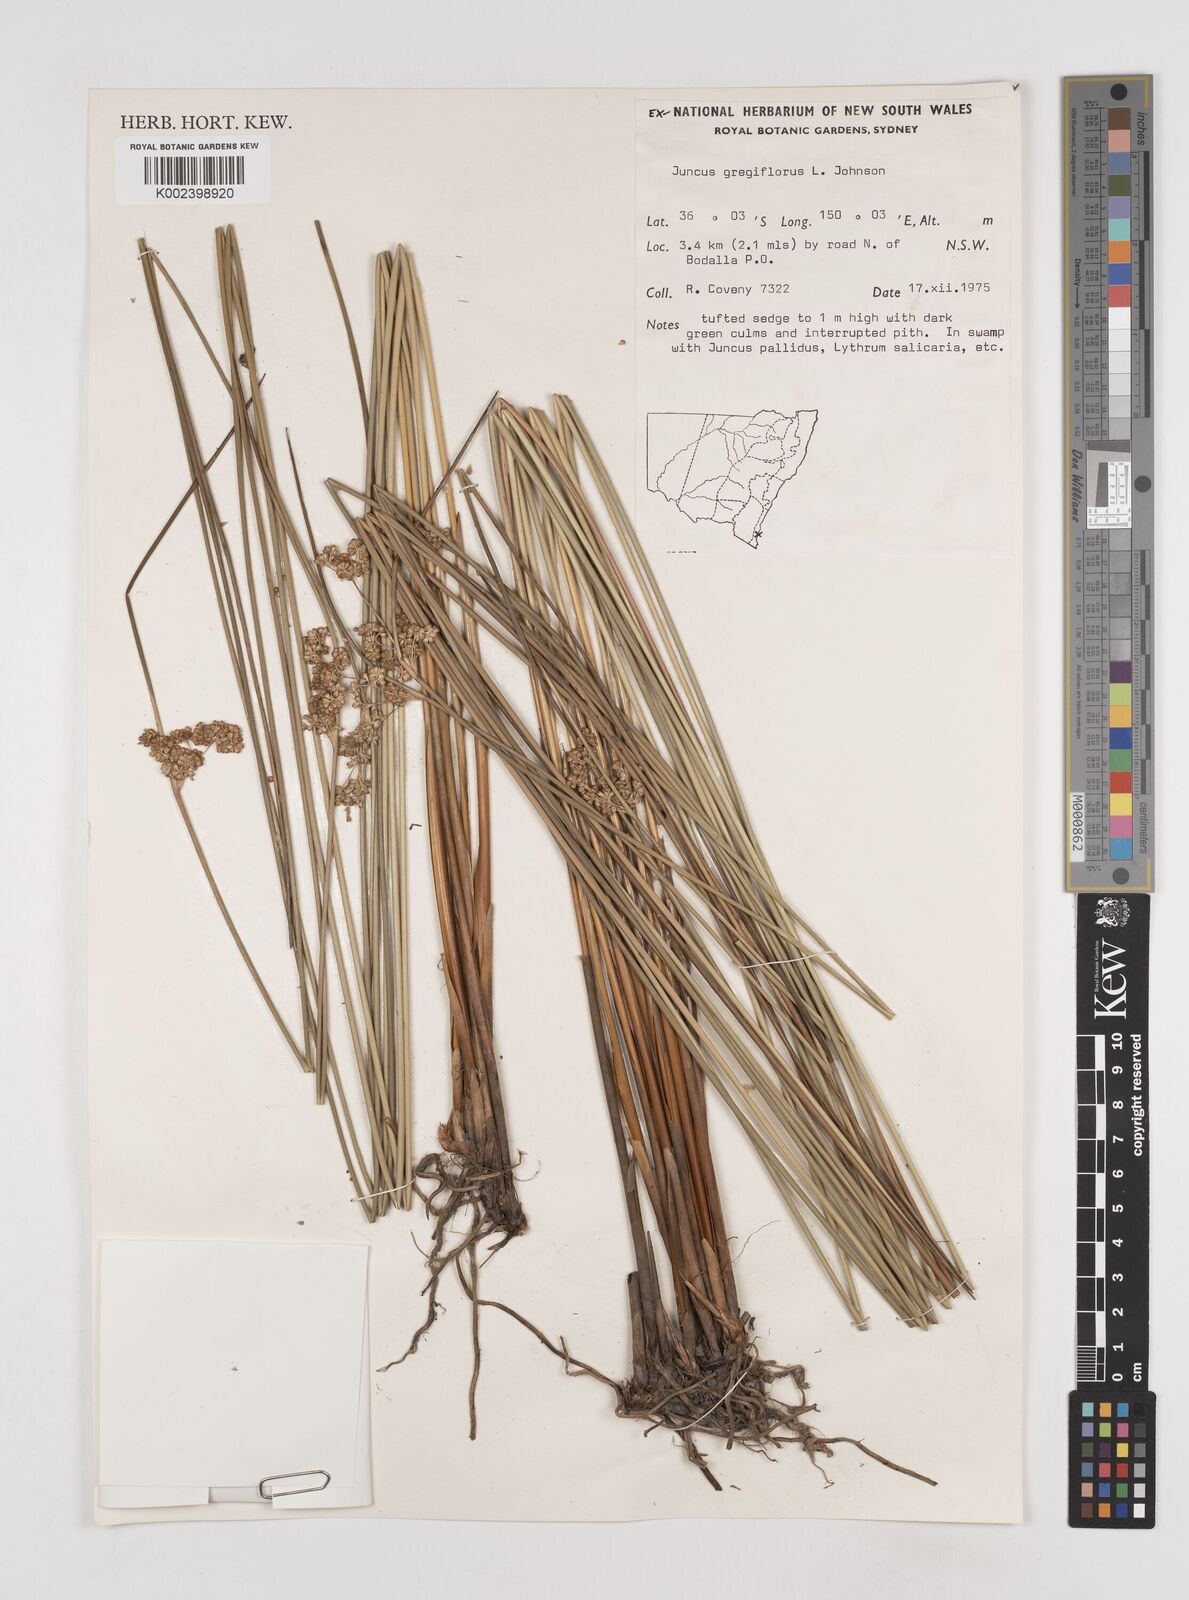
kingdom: Plantae
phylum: Tracheophyta
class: Liliopsida
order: Poales
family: Juncaceae
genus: Juncus
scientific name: Juncus gregiflorus
